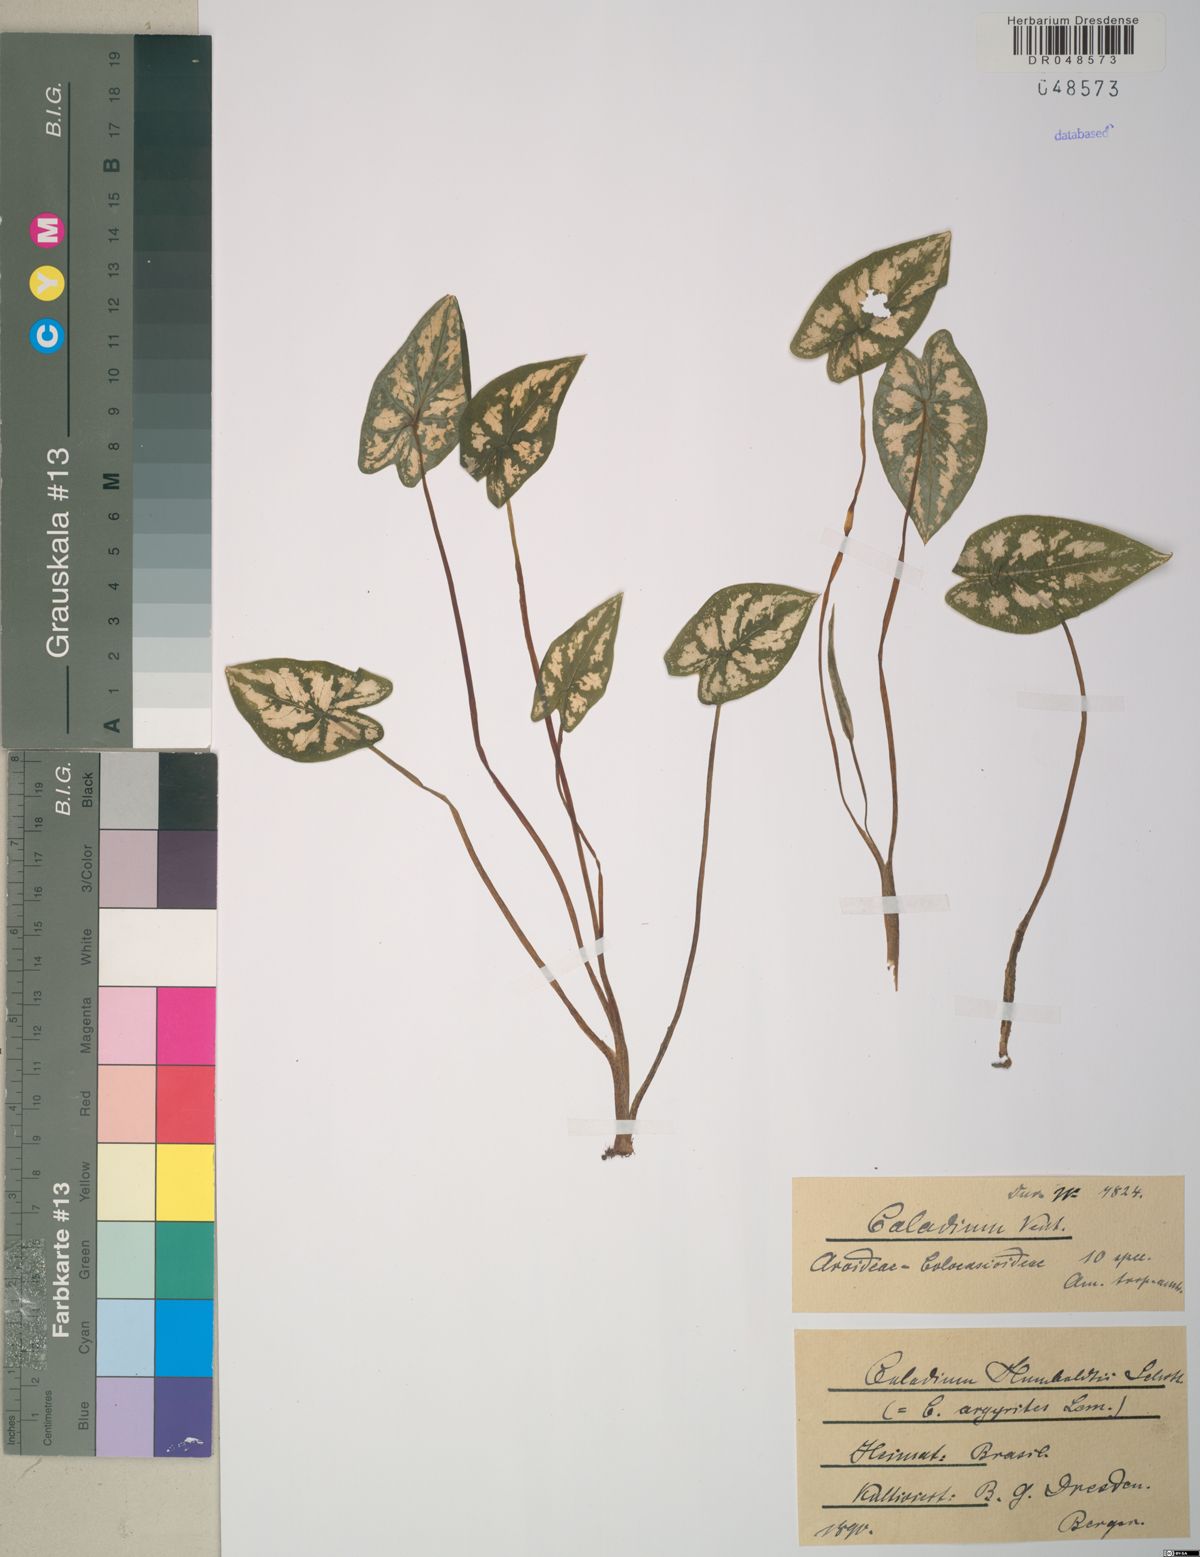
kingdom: Plantae
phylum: Tracheophyta
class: Liliopsida
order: Alismatales
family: Araceae
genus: Caladium
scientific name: Caladium humboldtii
